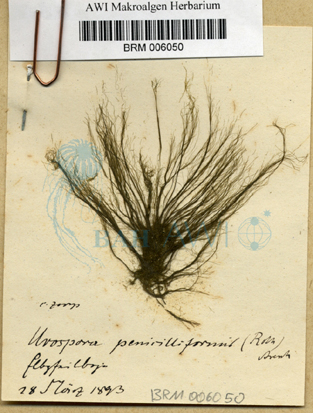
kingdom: Plantae
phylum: Chlorophyta
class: Ulvophyceae
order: Ulotrichales
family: Ulotrichaceae
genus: Urospora
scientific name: Urospora penicilliformis
